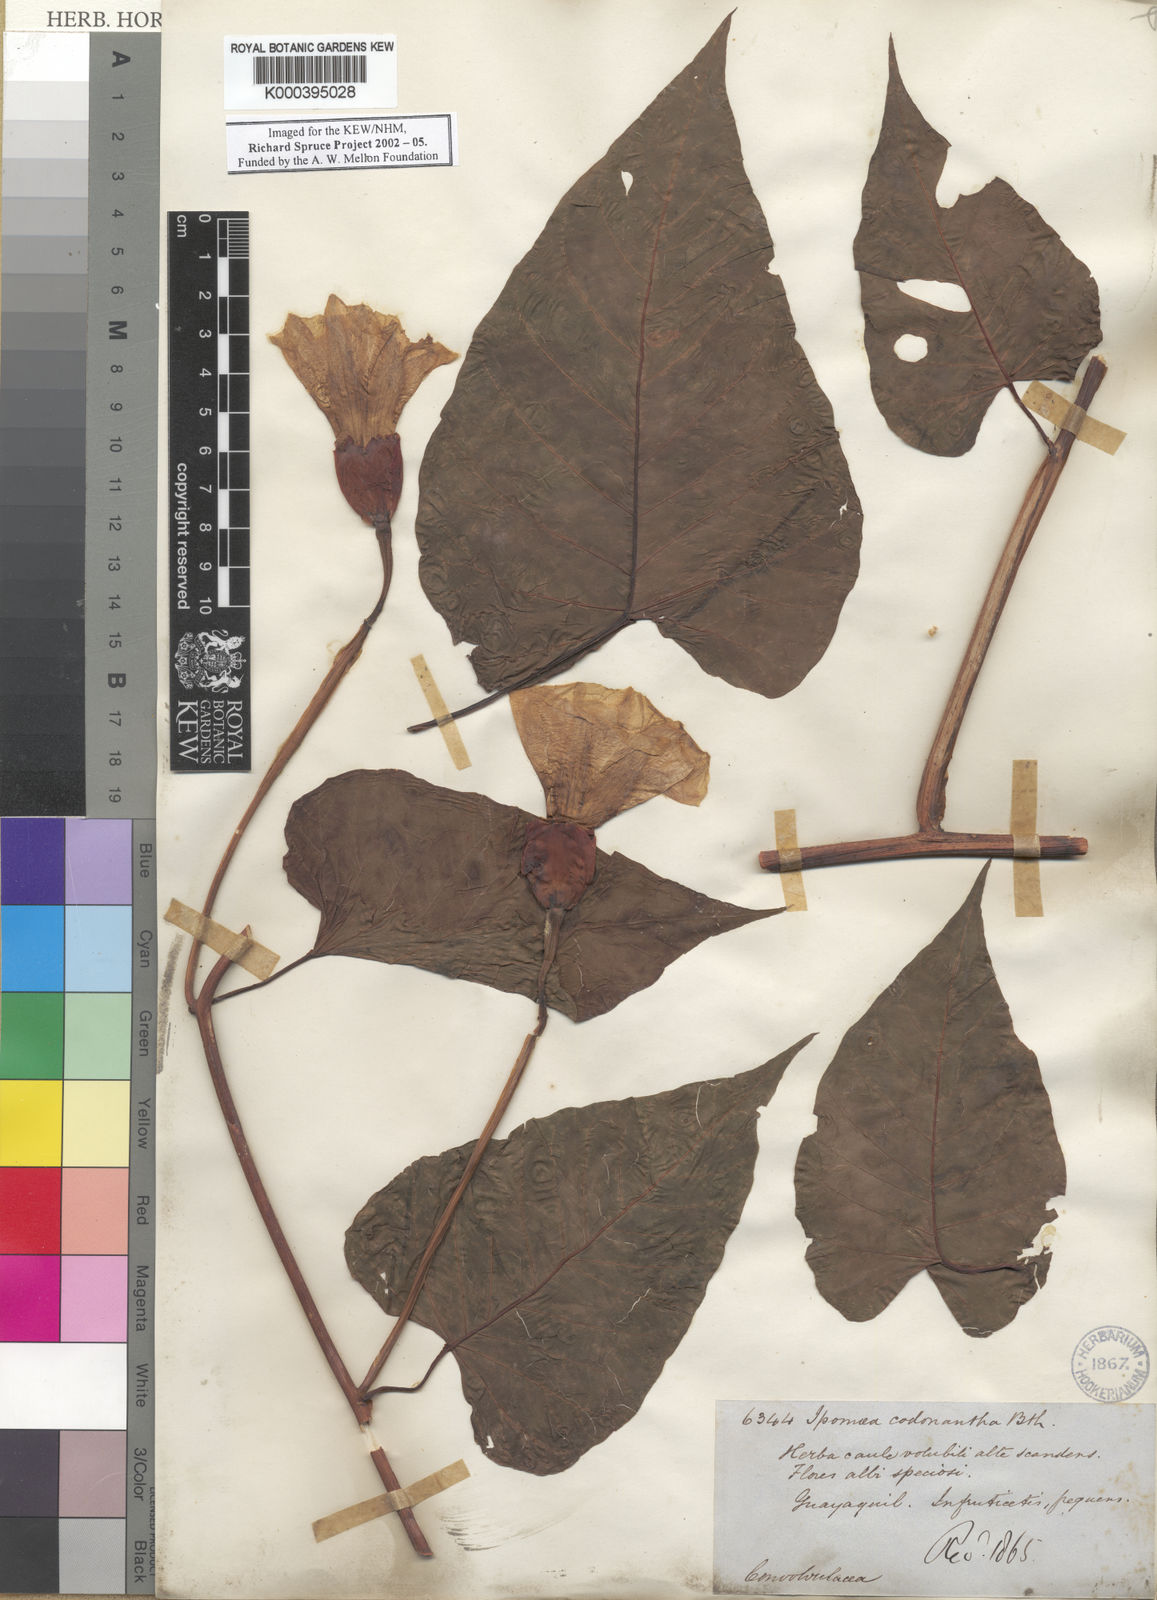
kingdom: Plantae
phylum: Tracheophyta
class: Magnoliopsida
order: Solanales
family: Convolvulaceae
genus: Operculina
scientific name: Operculina codonantha
